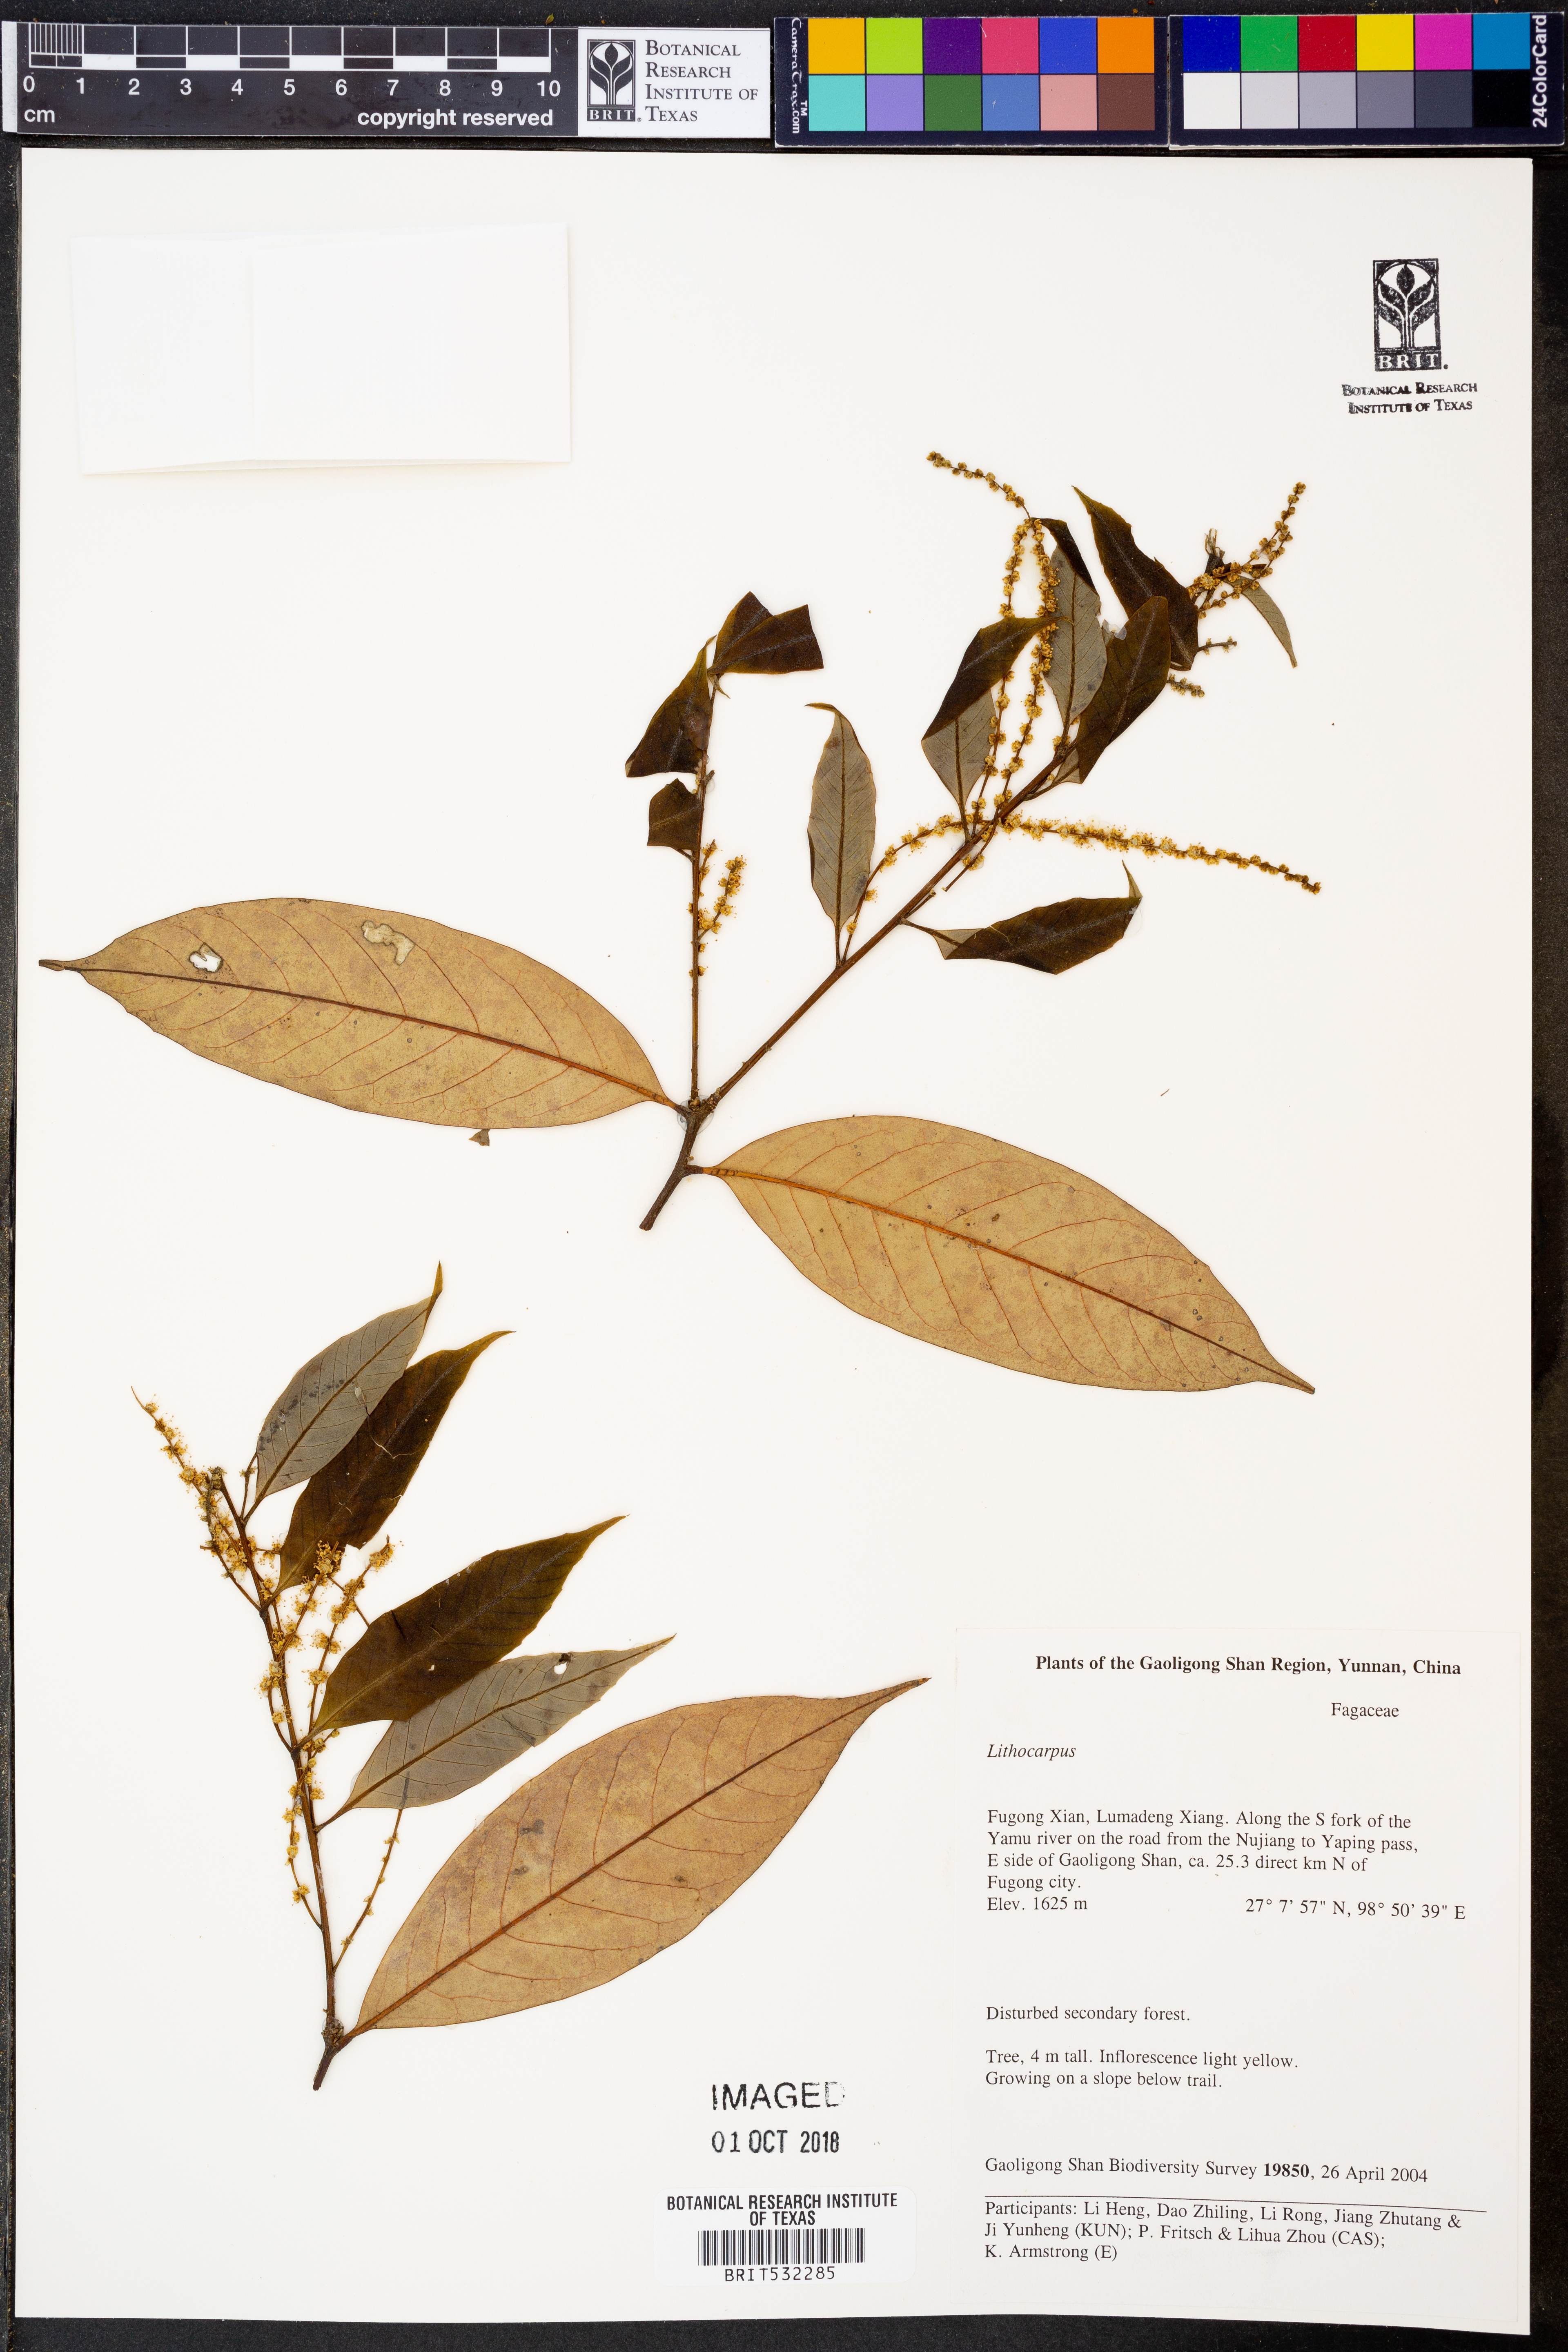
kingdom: Plantae
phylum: Tracheophyta
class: Magnoliopsida
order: Fagales
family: Fagaceae
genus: Lithocarpus
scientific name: Lithocarpus
